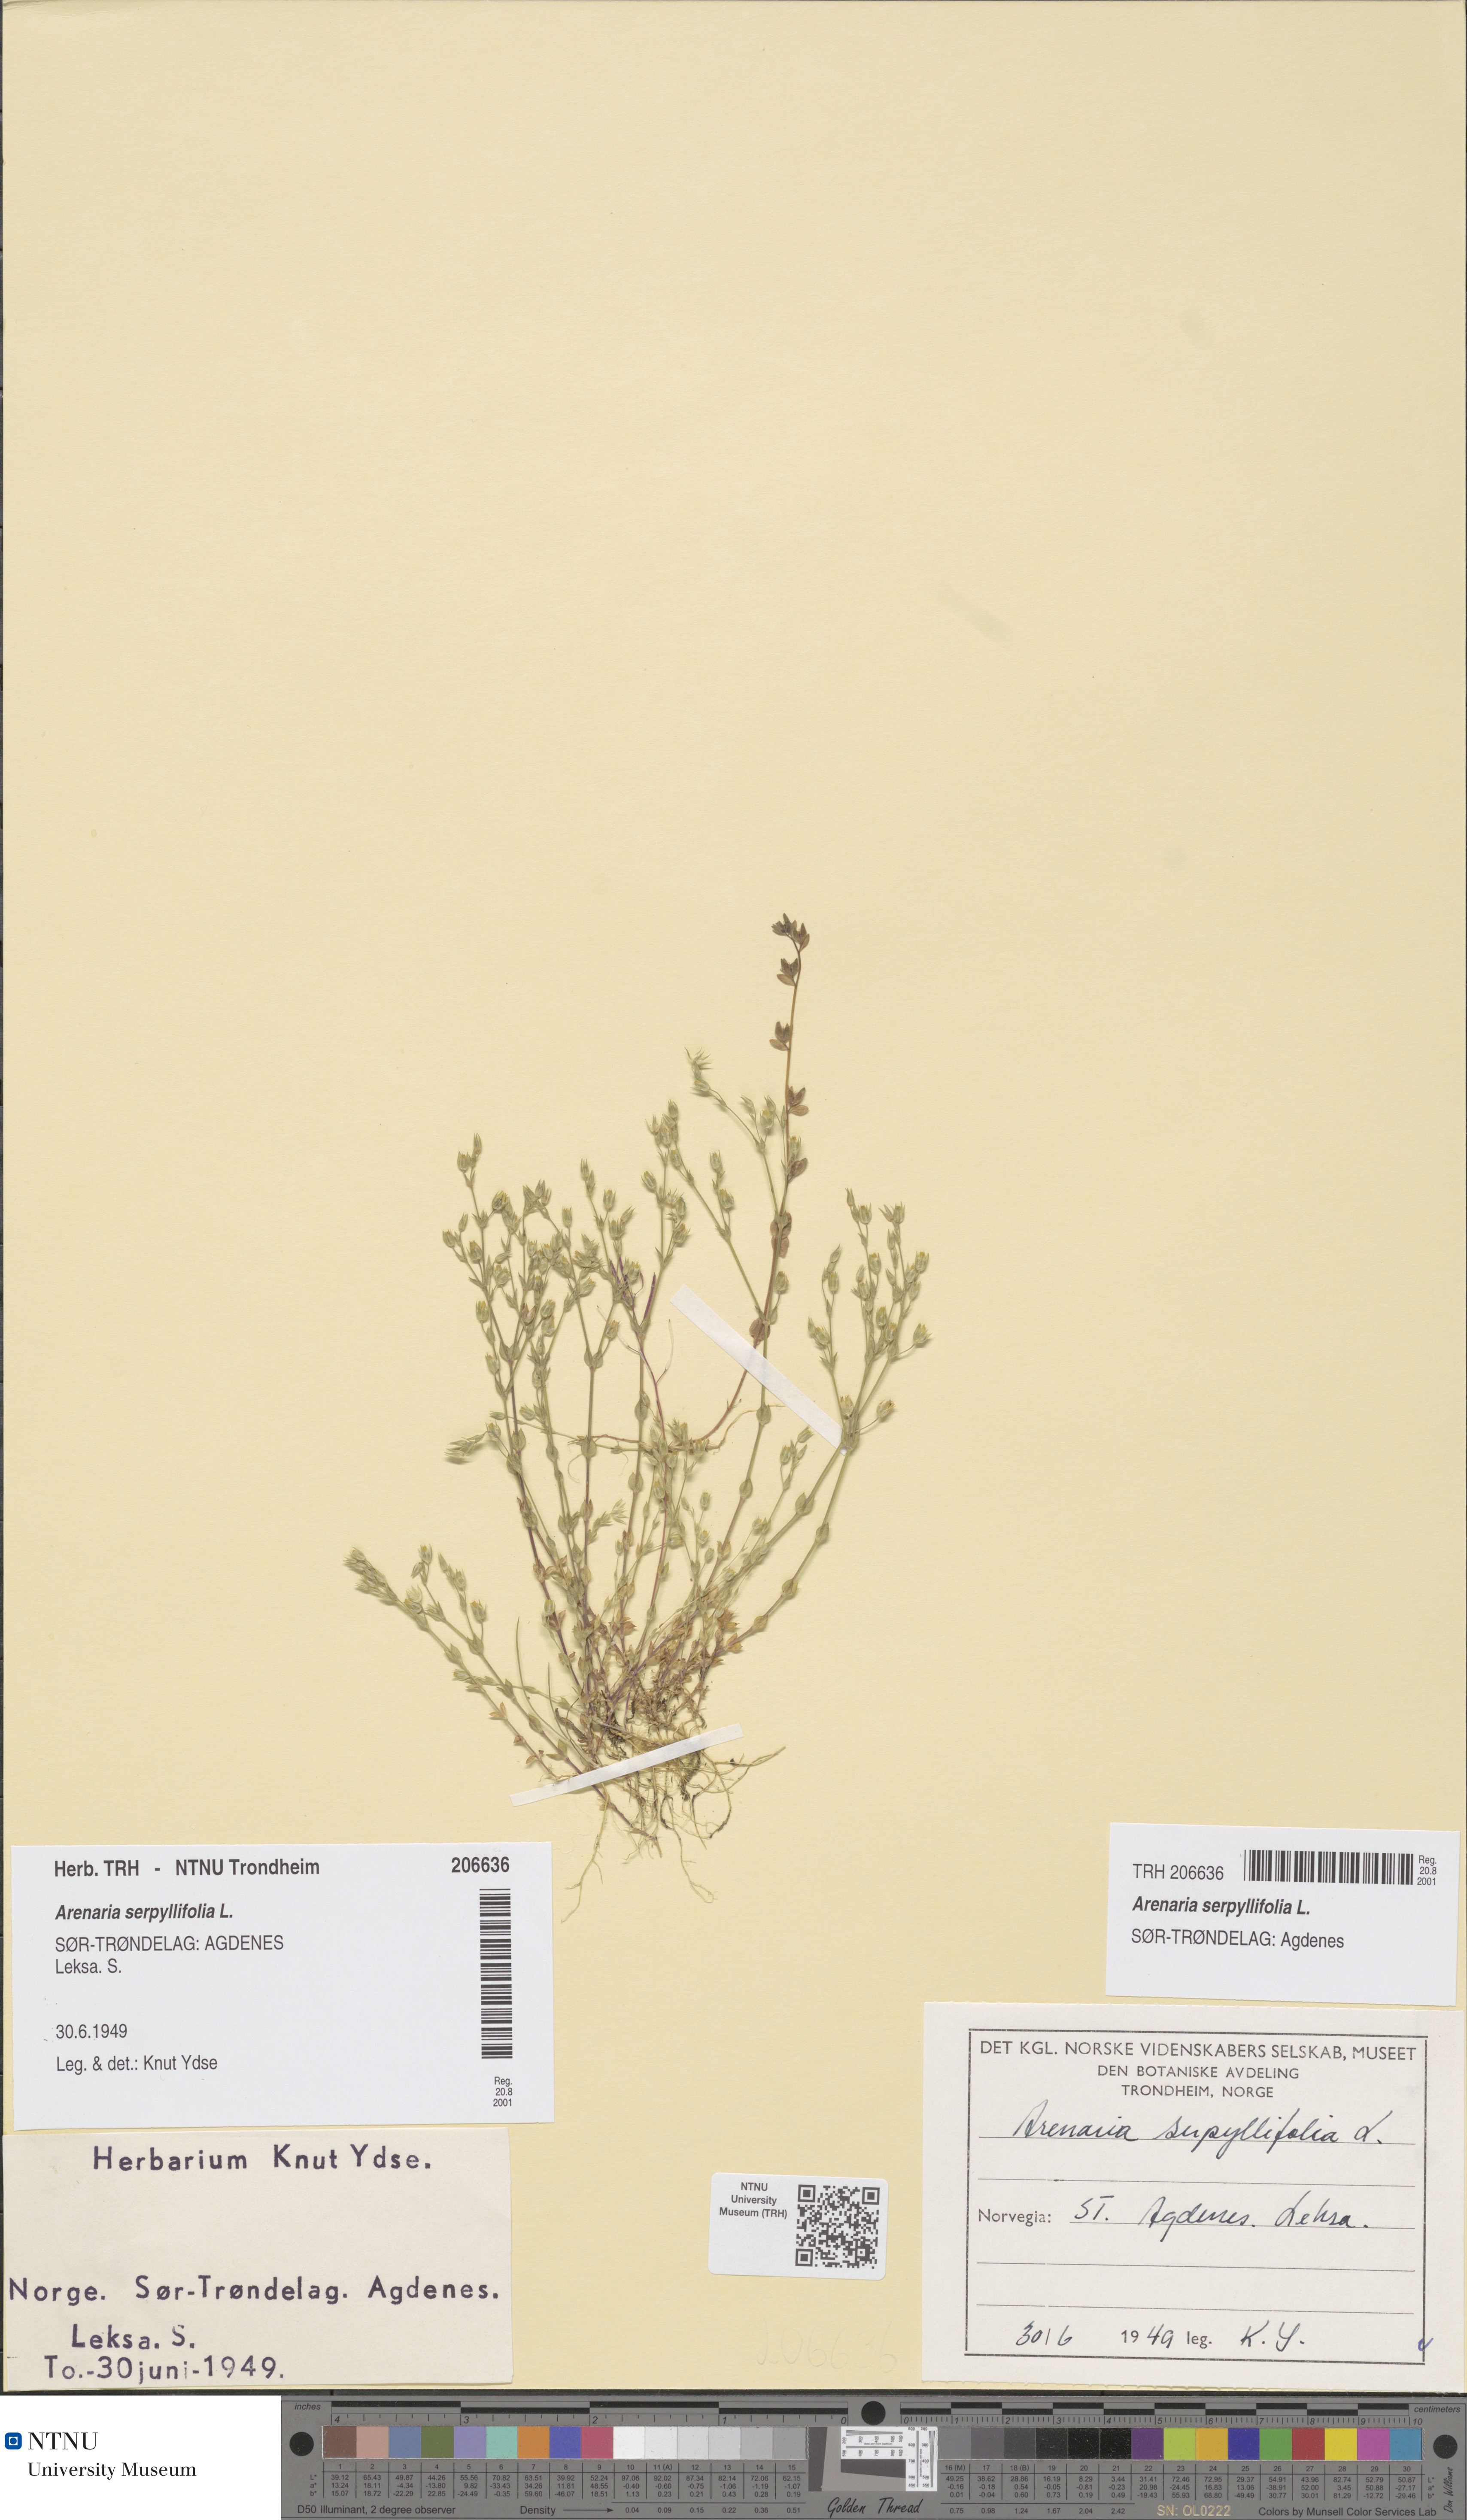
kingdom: Plantae
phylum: Tracheophyta
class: Magnoliopsida
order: Caryophyllales
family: Caryophyllaceae
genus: Arenaria
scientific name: Arenaria serpyllifolia
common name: Thyme-leaved sandwort
